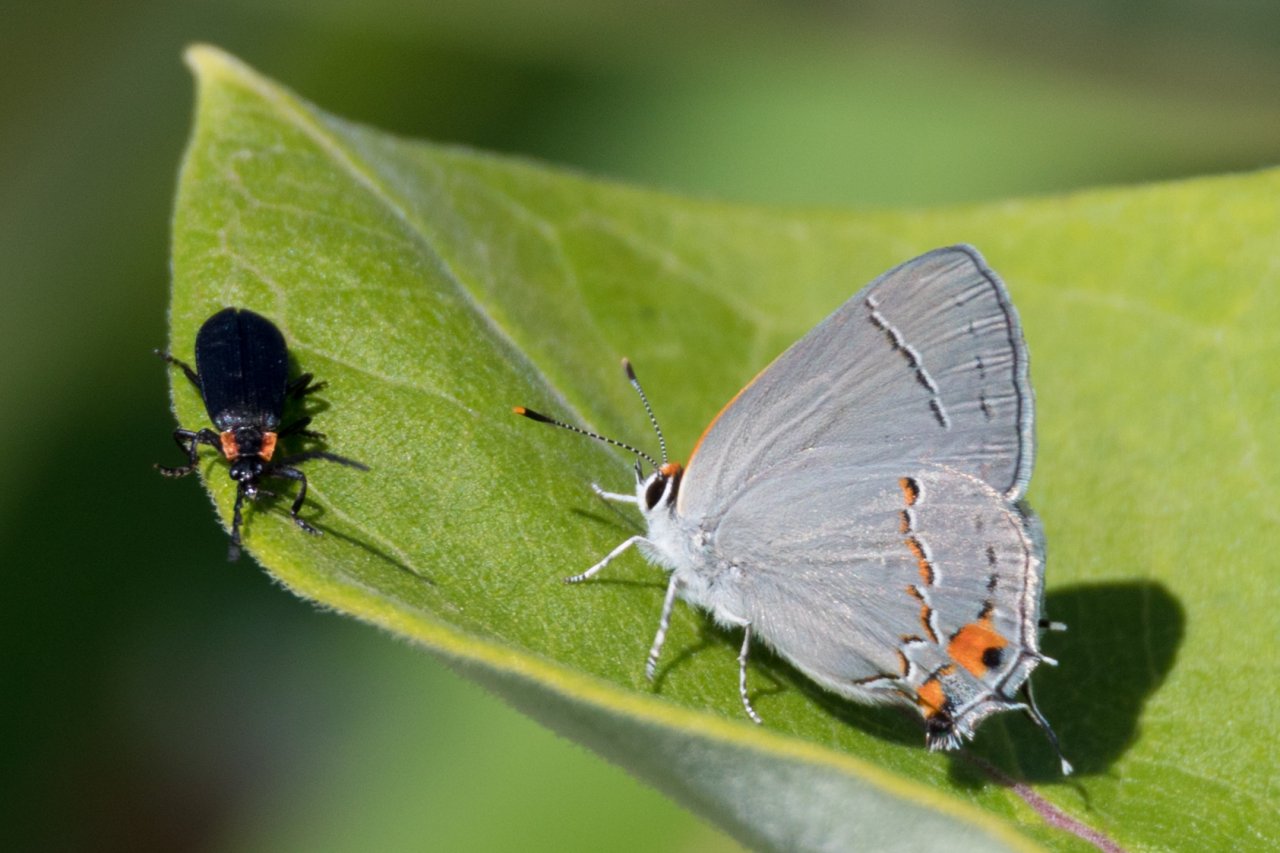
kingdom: Animalia
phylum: Arthropoda
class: Insecta
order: Lepidoptera
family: Lycaenidae
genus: Strymon
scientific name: Strymon melinus
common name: Gray Hairstreak
